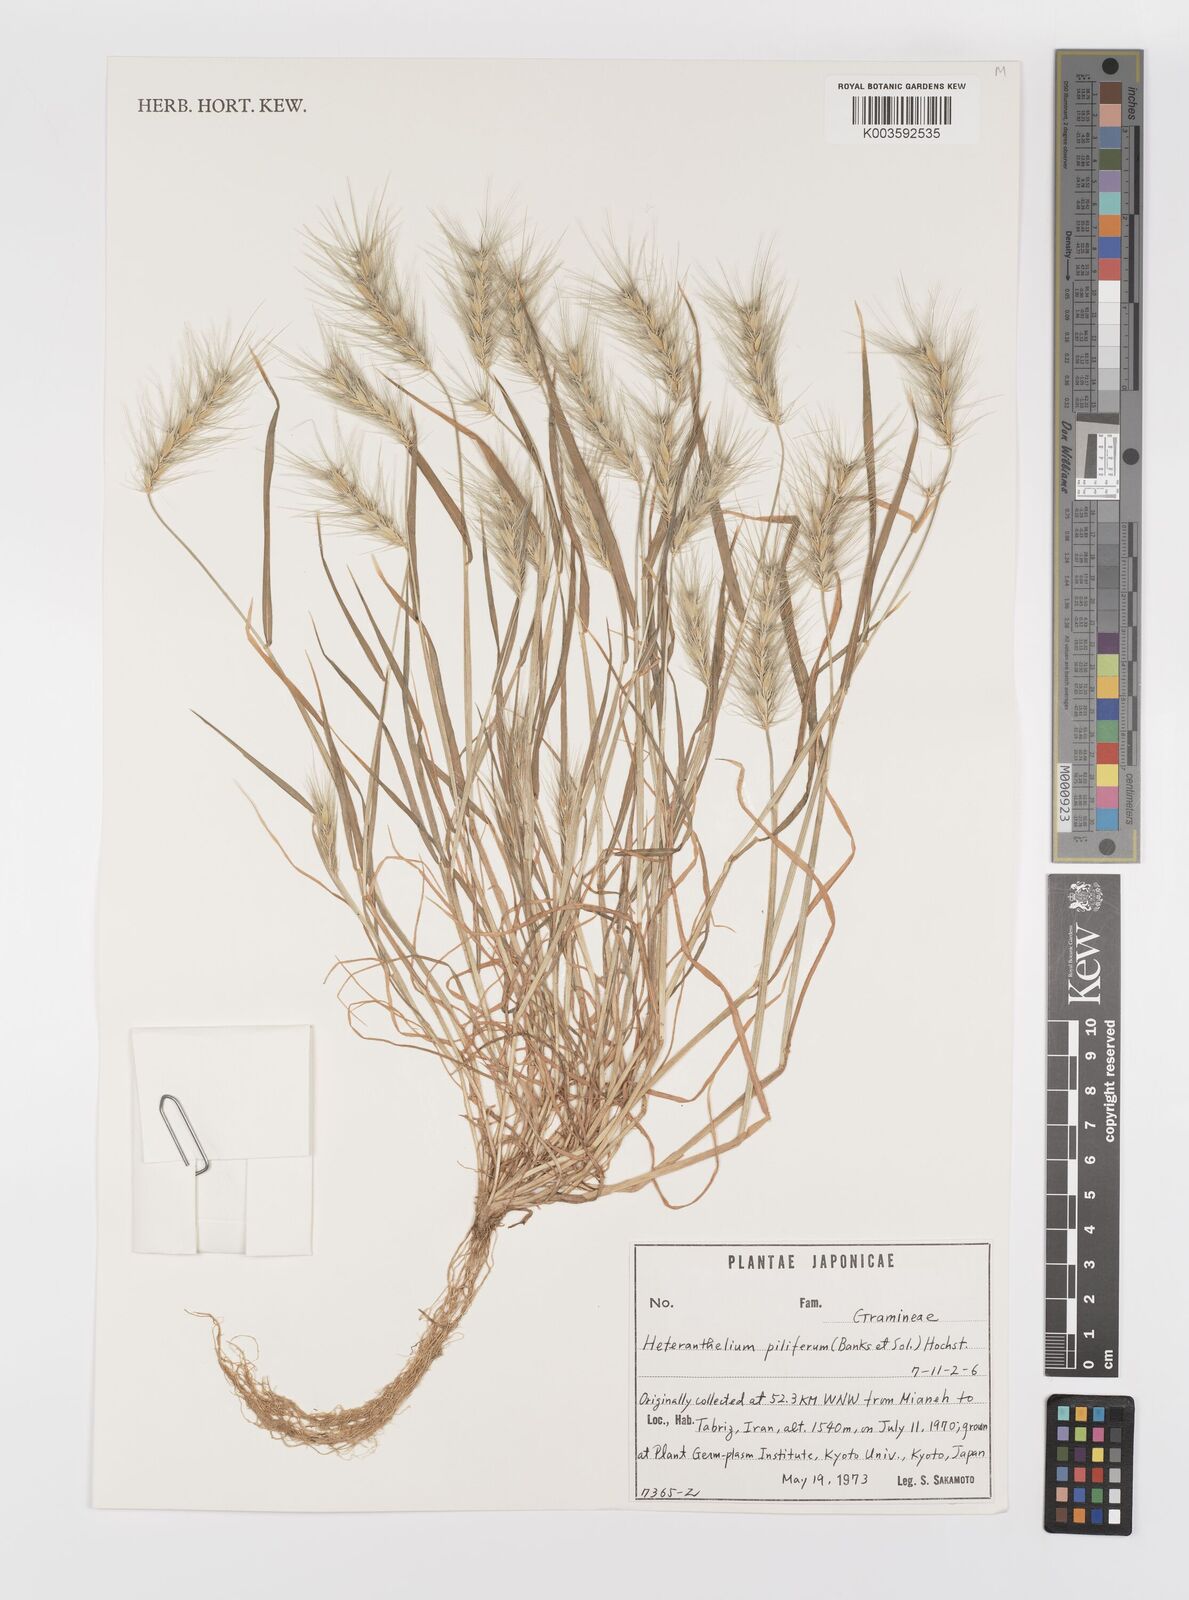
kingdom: Plantae
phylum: Tracheophyta
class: Liliopsida
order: Poales
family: Poaceae
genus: Heteranthelium
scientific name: Heteranthelium piliferum
